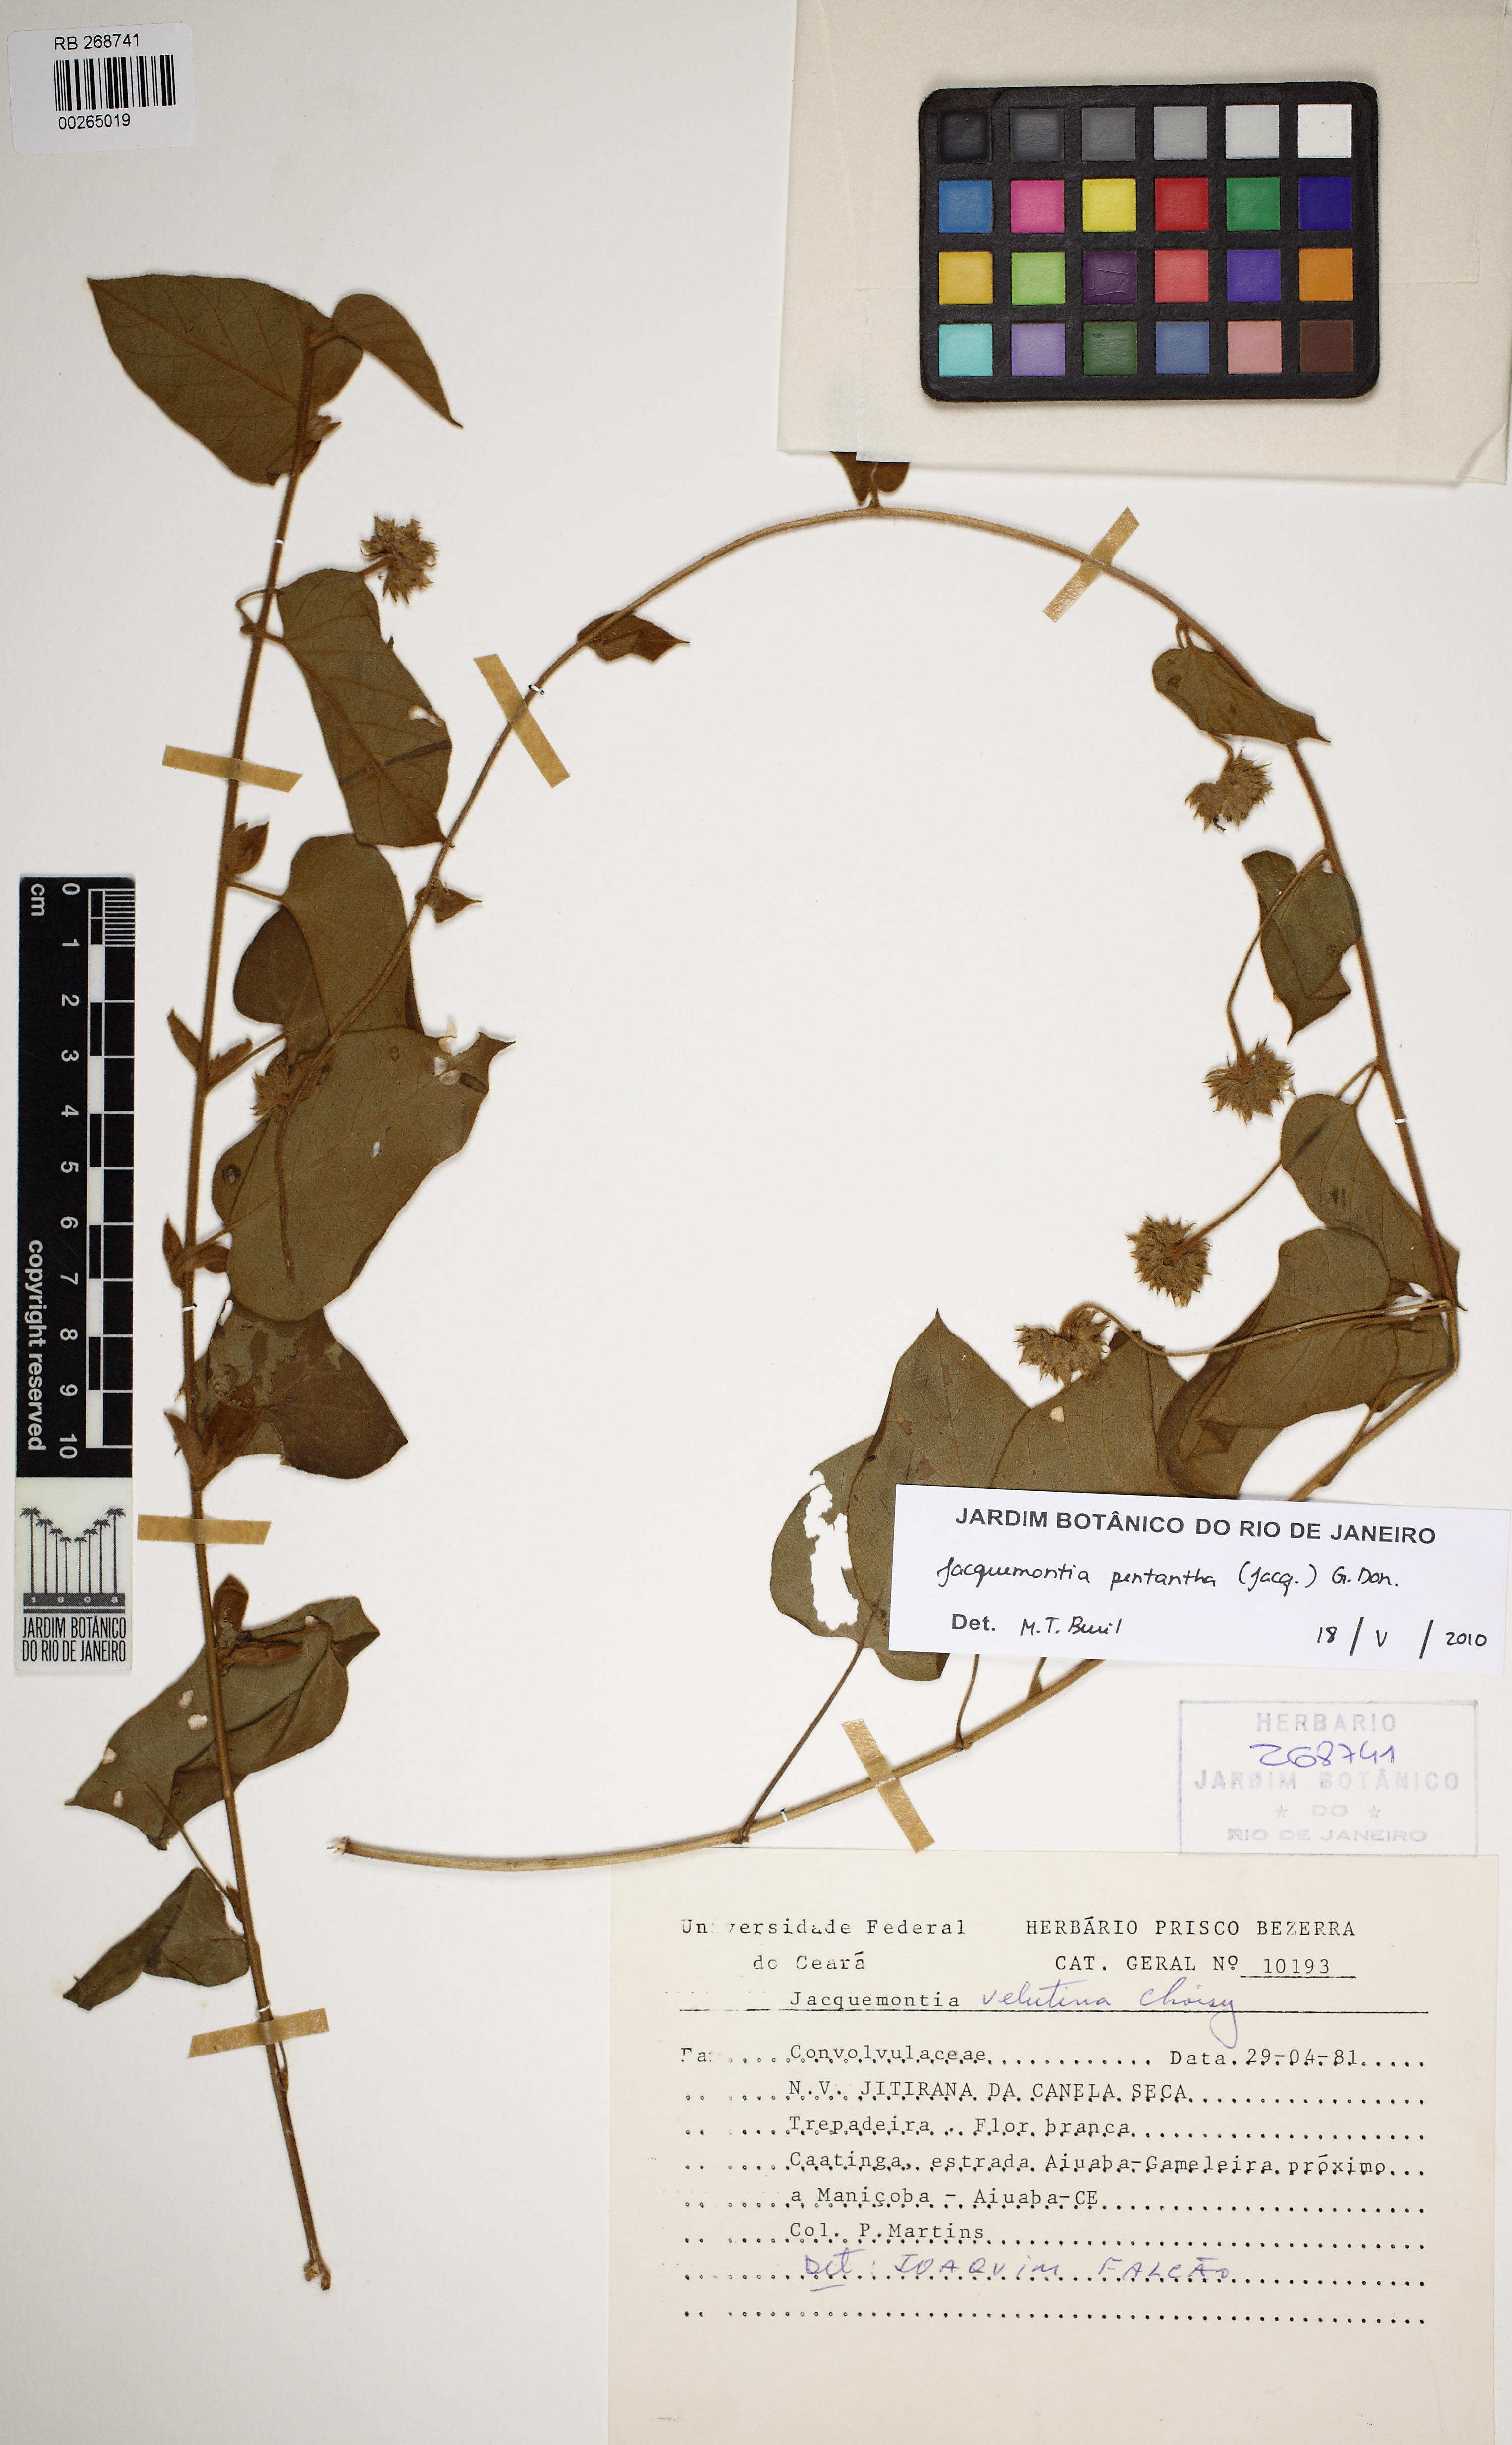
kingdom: Plantae
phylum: Tracheophyta
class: Magnoliopsida
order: Solanales
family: Convolvulaceae
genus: Jacquemontia
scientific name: Jacquemontia pentanthos
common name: Skyblue clustervine
